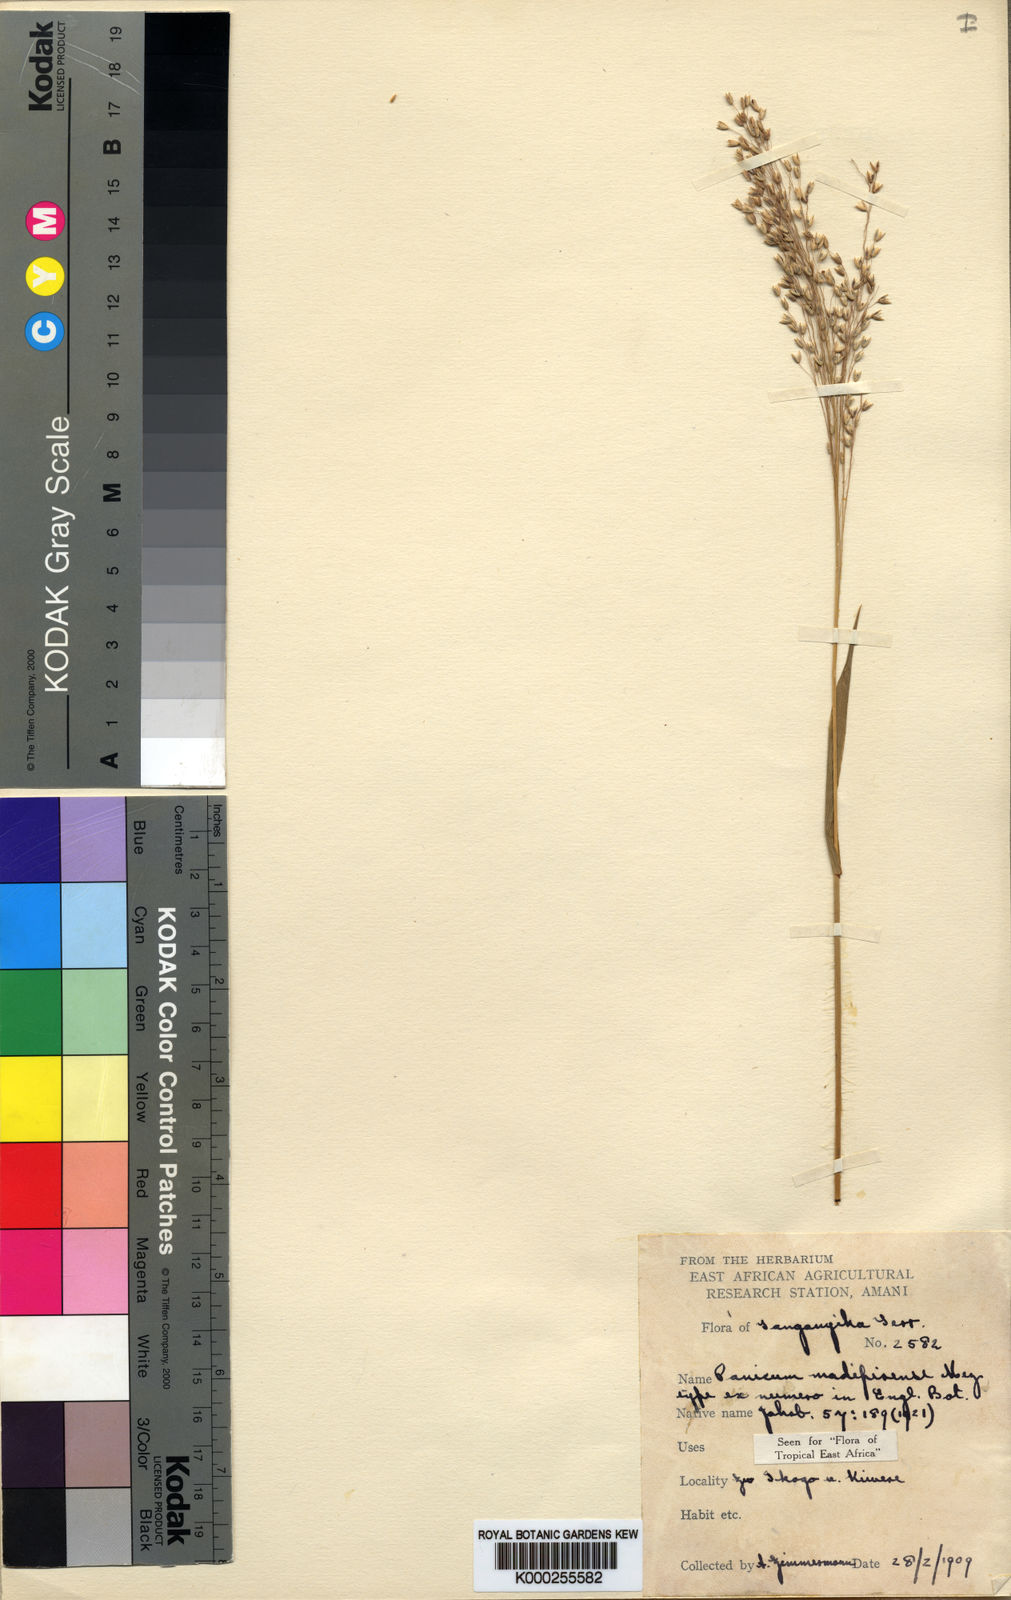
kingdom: Plantae
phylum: Tracheophyta
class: Liliopsida
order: Poales
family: Poaceae
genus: Panicum
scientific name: Panicum madipirense
